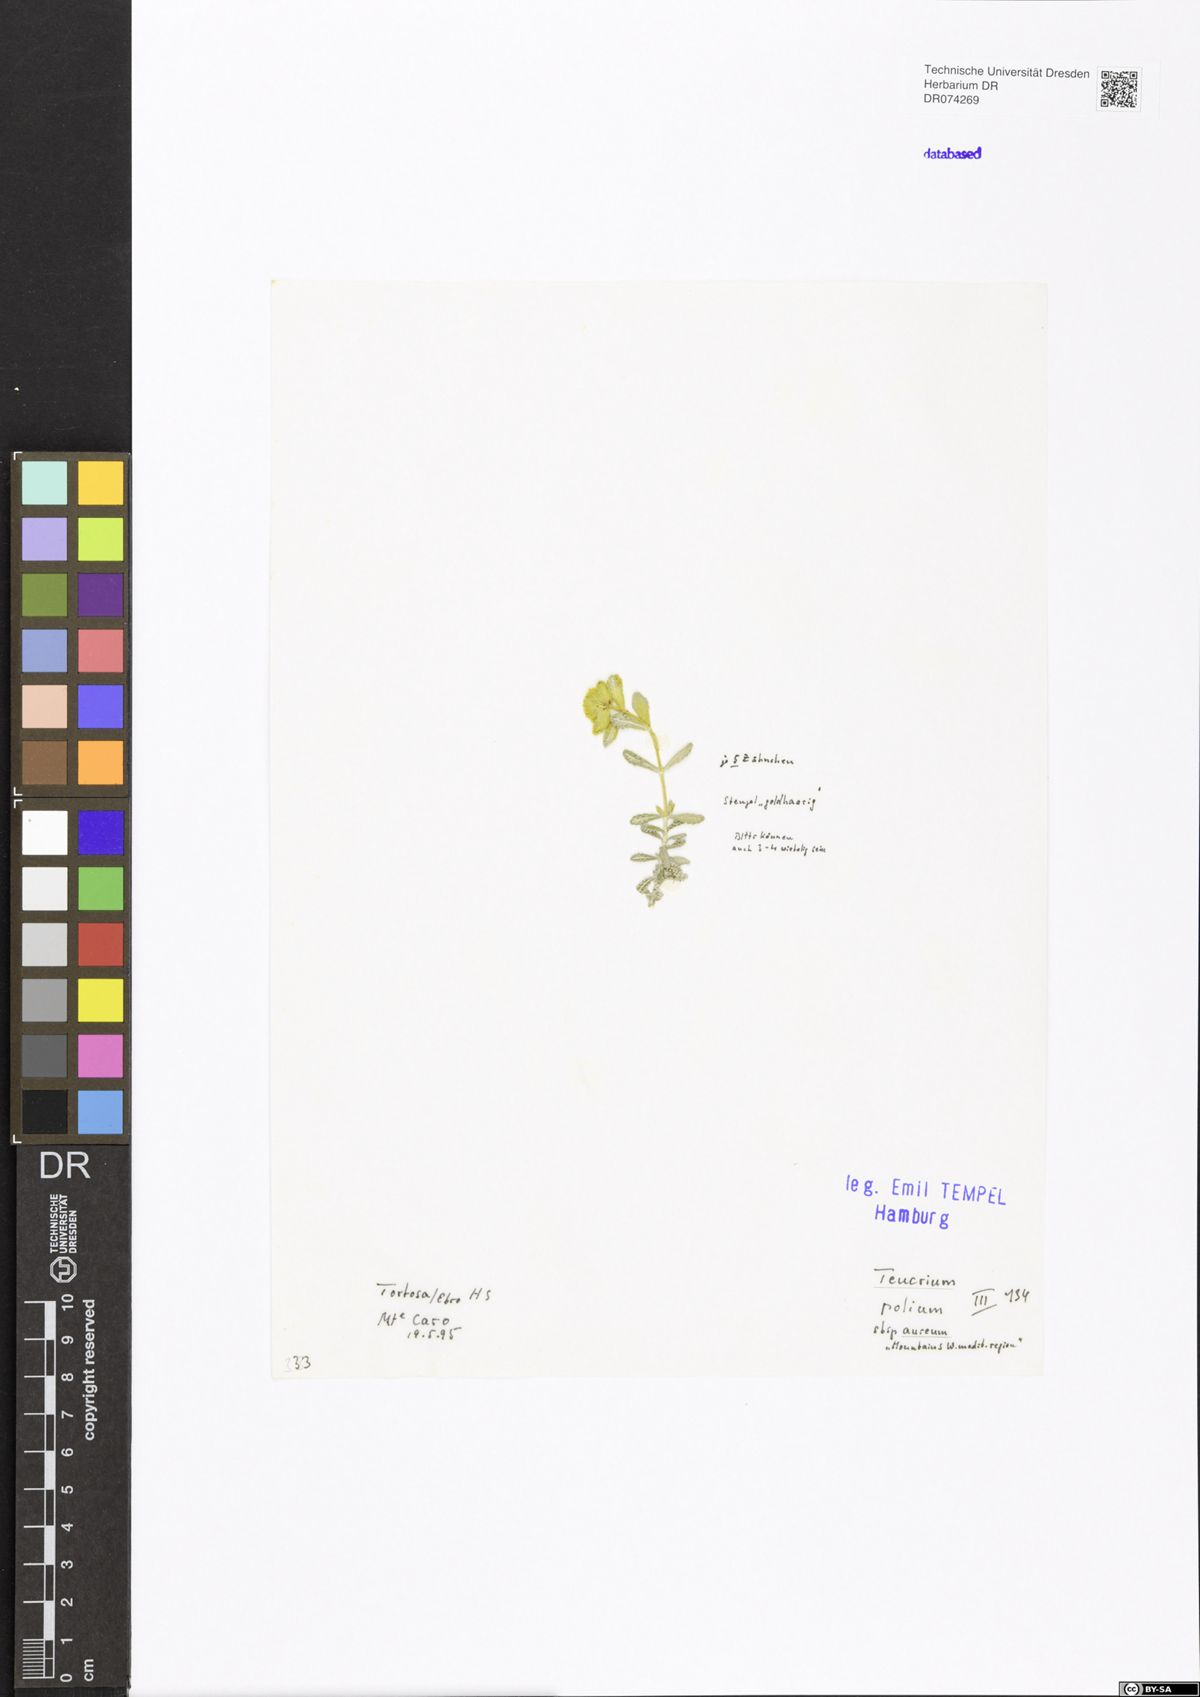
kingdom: Plantae
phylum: Tracheophyta
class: Magnoliopsida
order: Lamiales
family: Lamiaceae
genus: Teucrium
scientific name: Teucrium polium
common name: Poley
